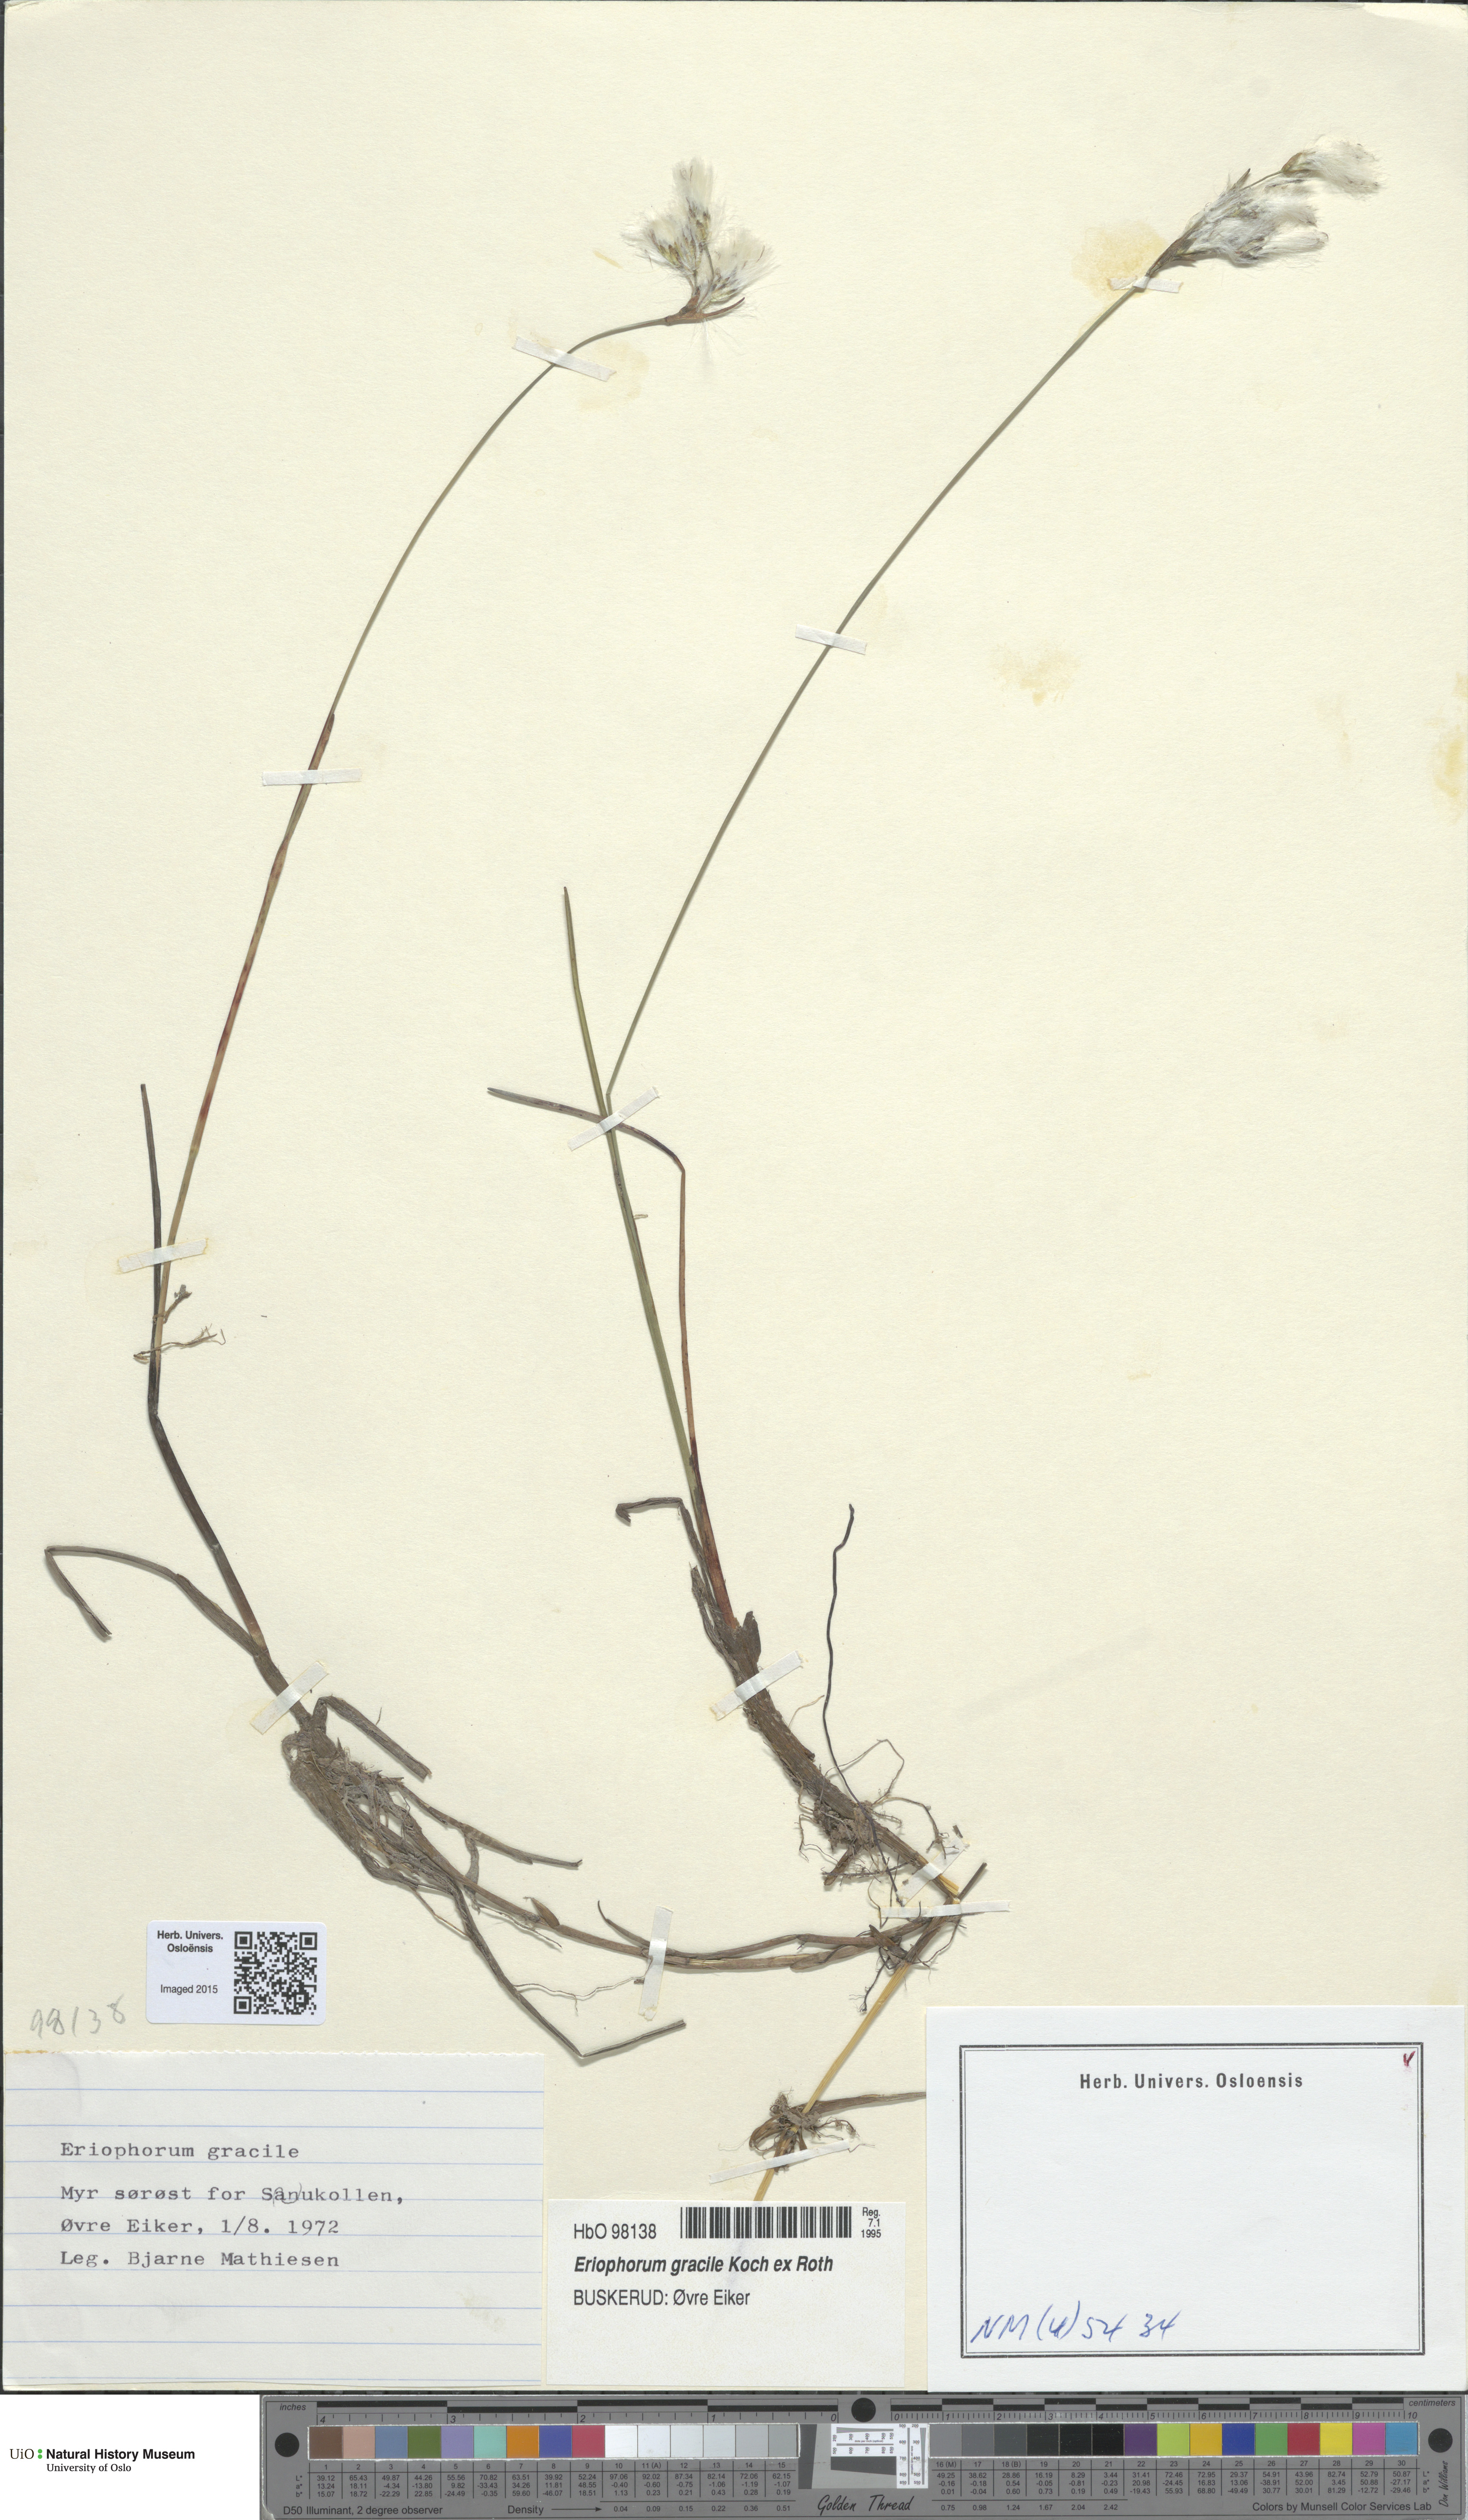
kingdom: Plantae
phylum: Tracheophyta
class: Liliopsida
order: Poales
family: Cyperaceae
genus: Eriophorum
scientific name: Eriophorum gracile
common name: Slender cottongrass
